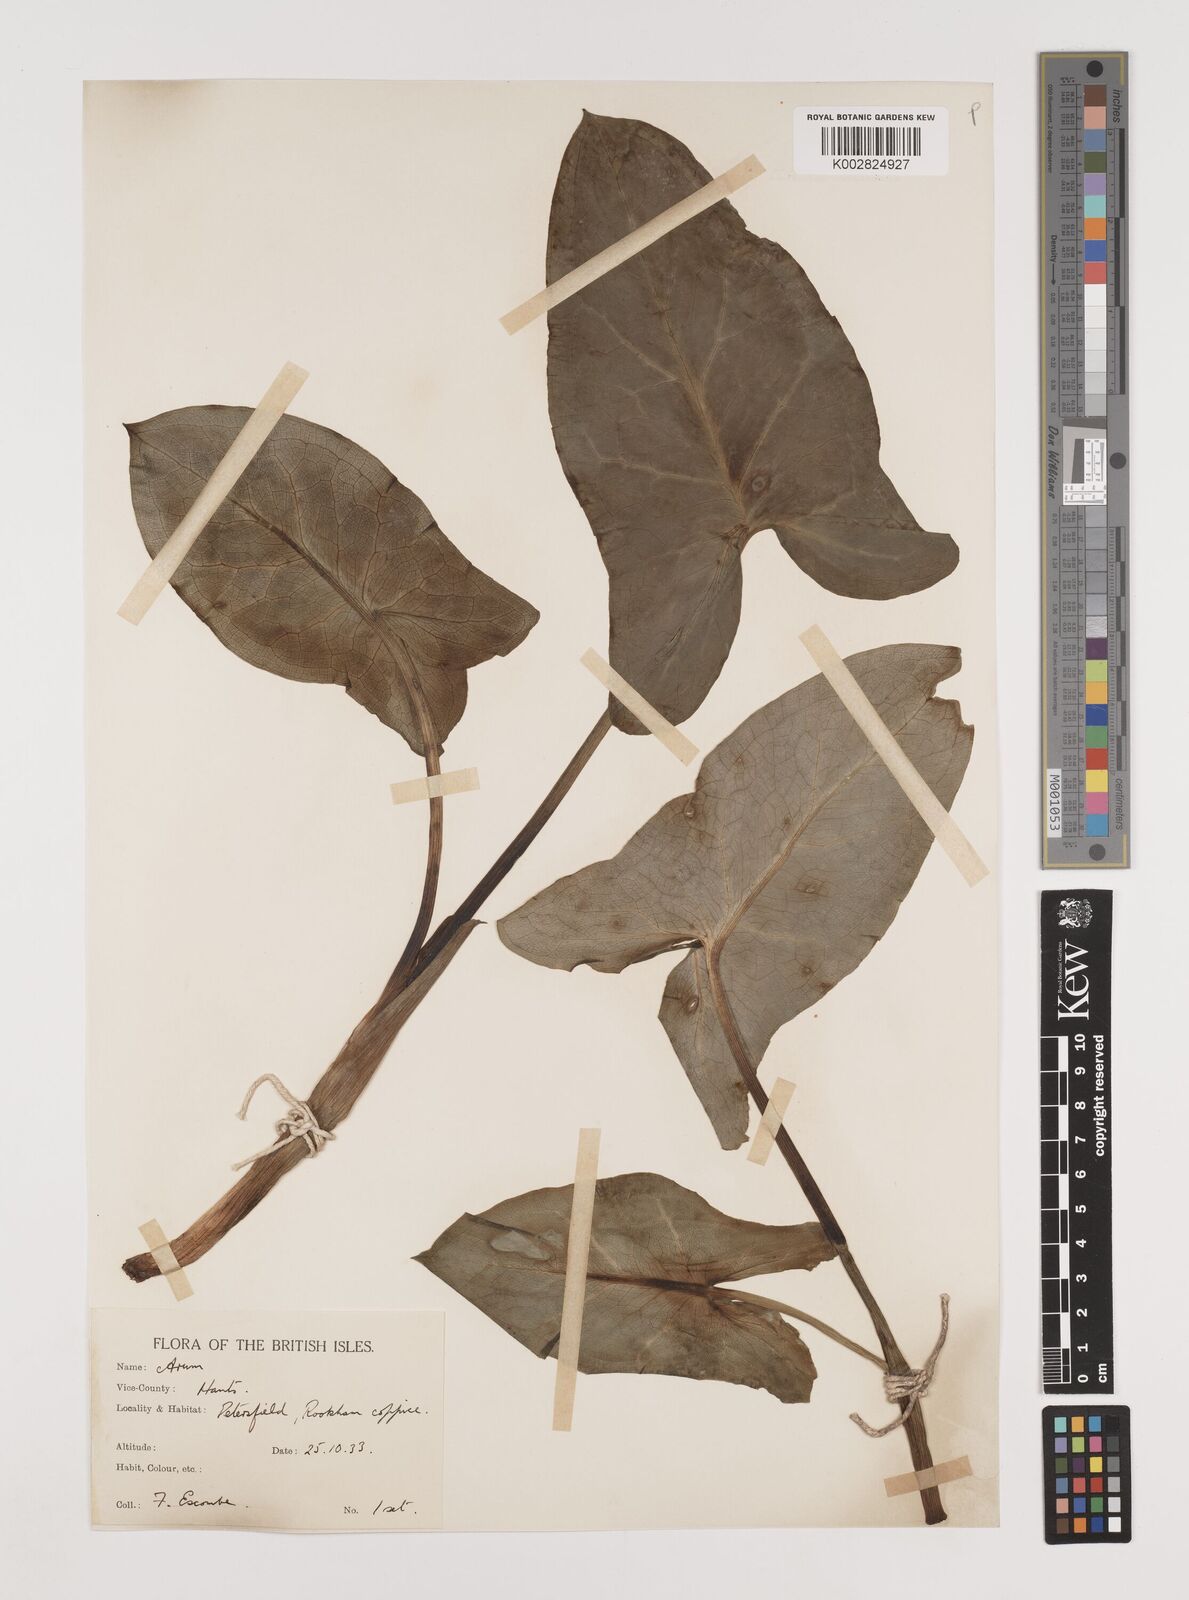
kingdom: Plantae
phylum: Tracheophyta
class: Liliopsida
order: Alismatales
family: Araceae
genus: Arum
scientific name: Arum italicum
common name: Italian lords-and-ladies
